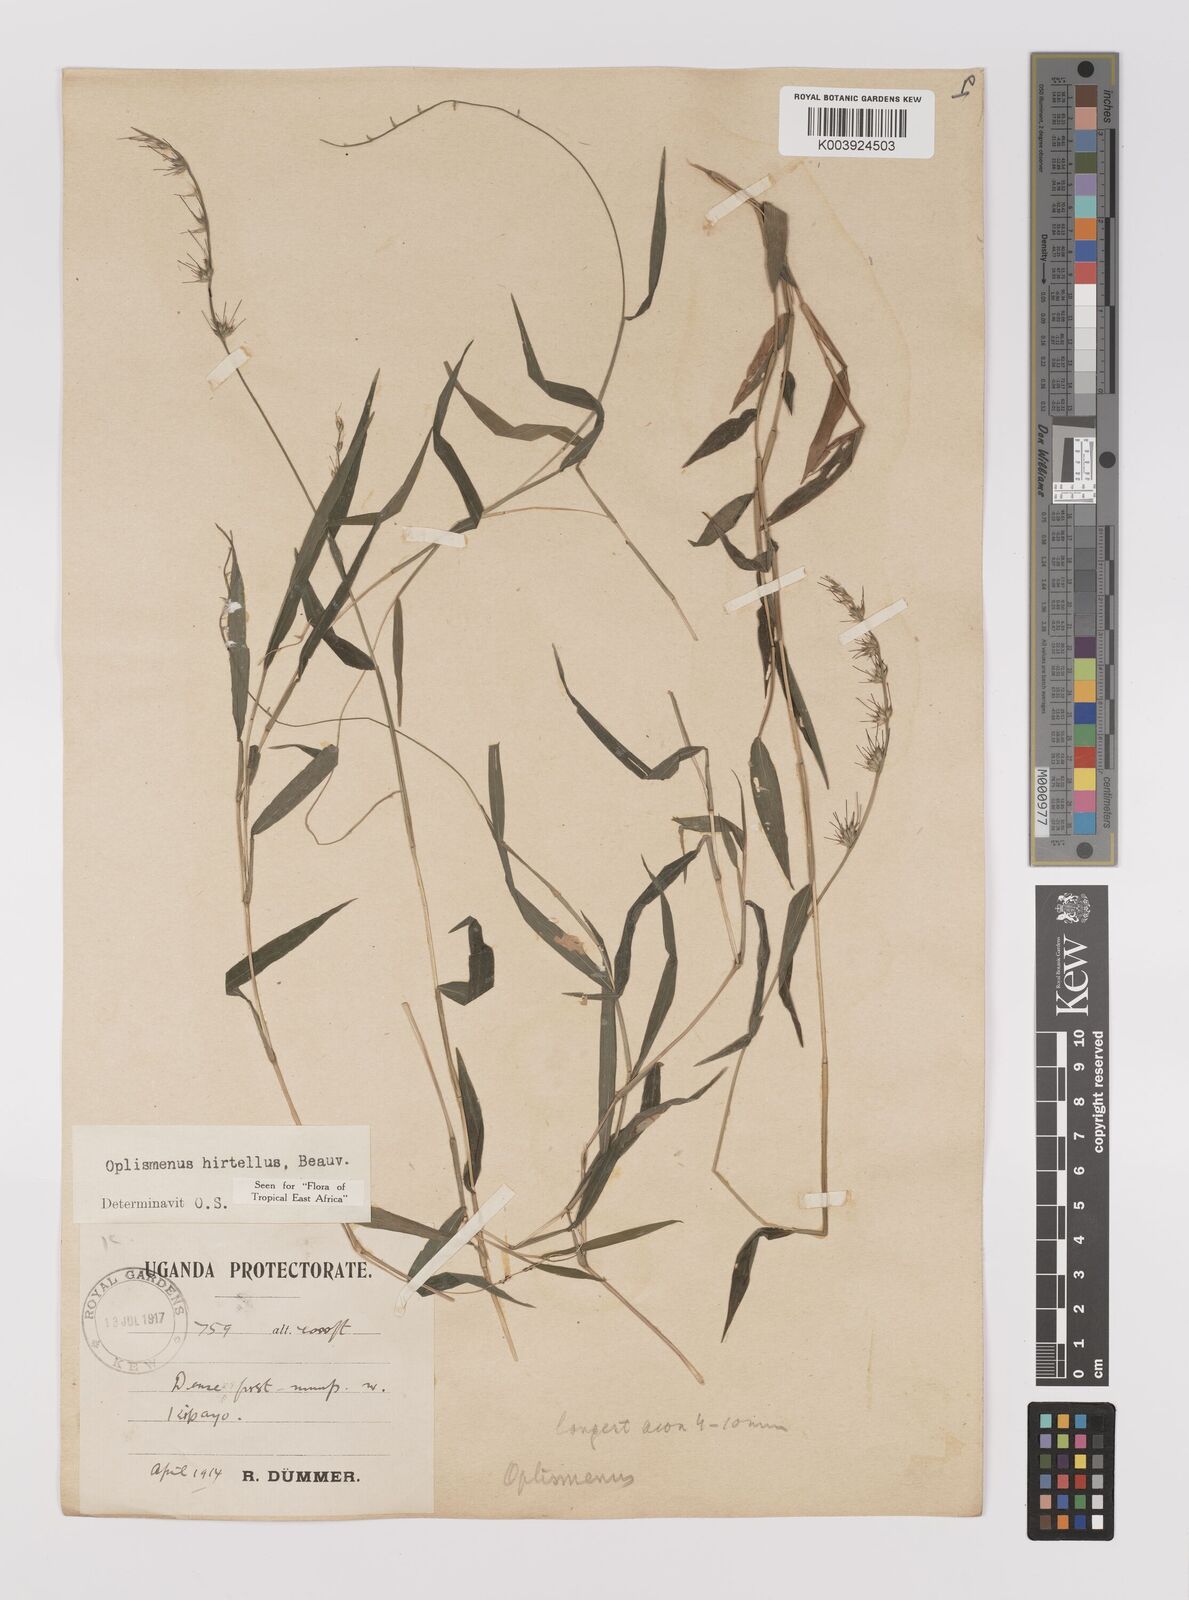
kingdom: Plantae
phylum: Tracheophyta
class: Liliopsida
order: Poales
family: Poaceae
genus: Oplismenus
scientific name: Oplismenus hirtellus
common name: Basketgrass
